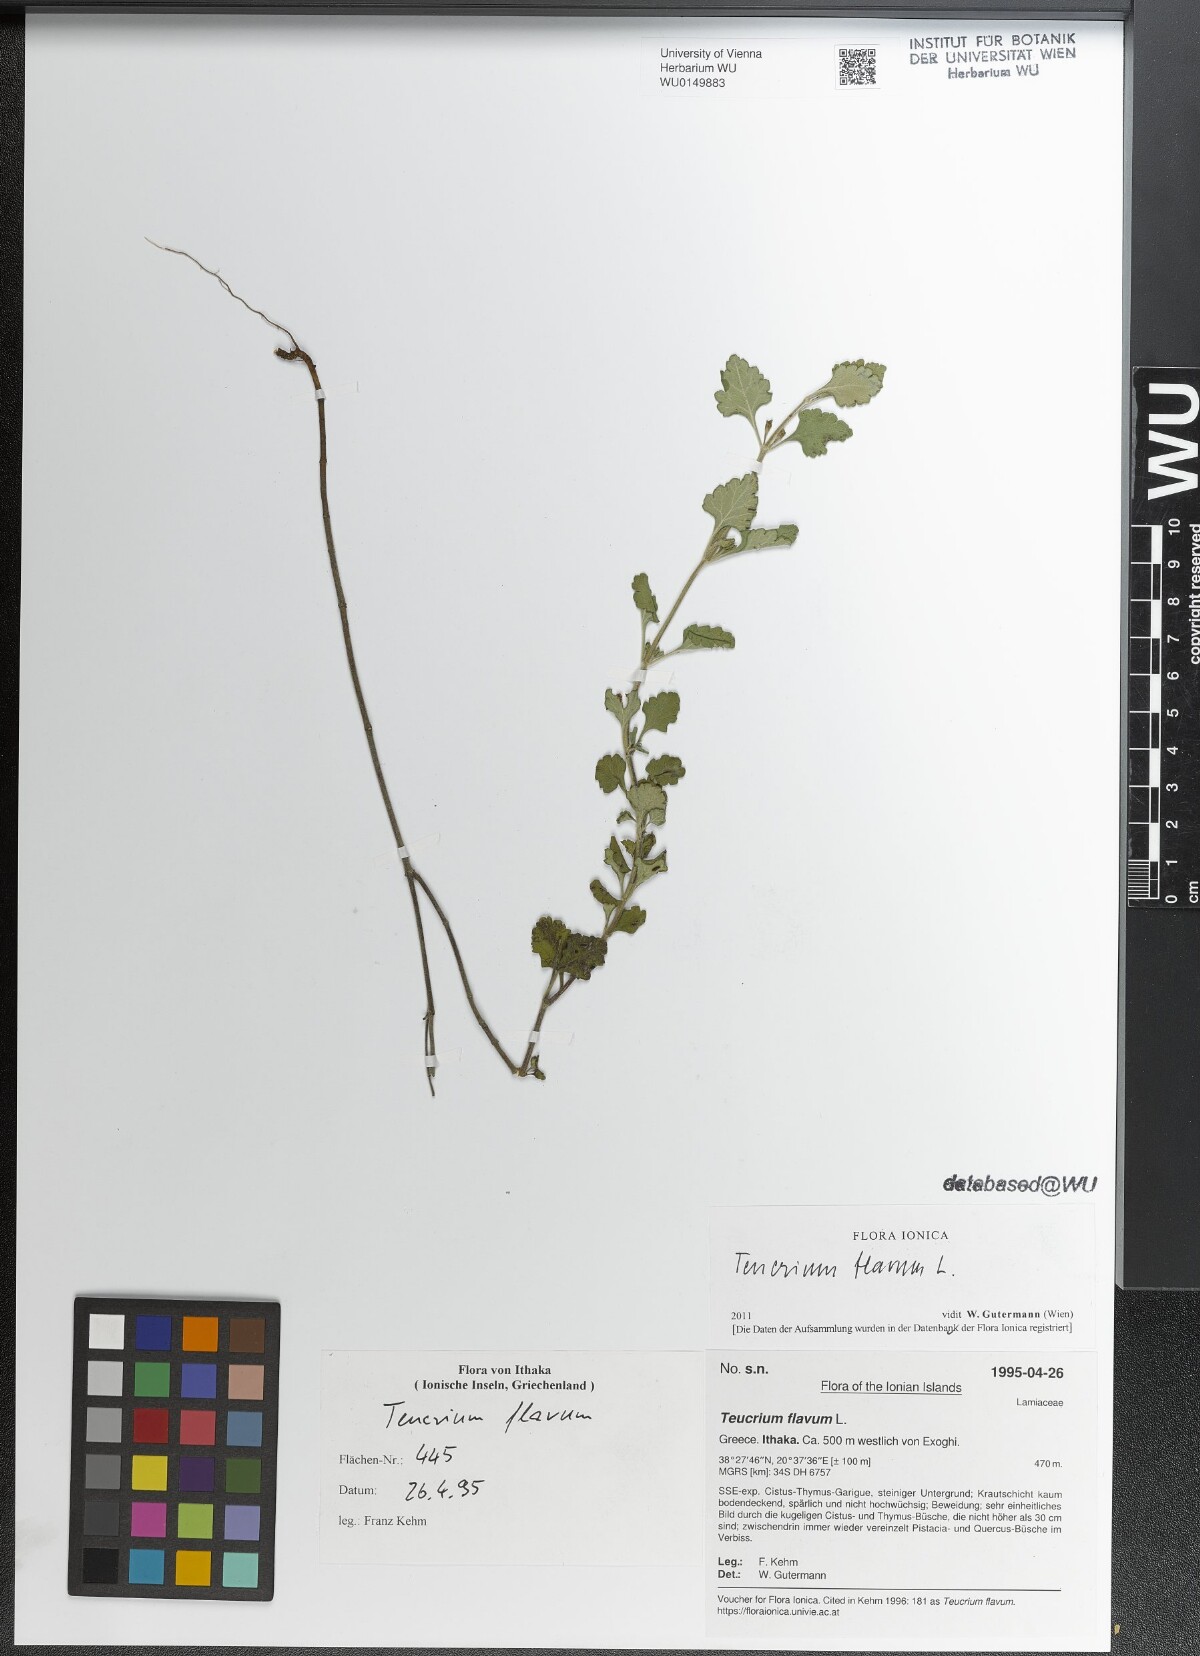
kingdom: Plantae
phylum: Tracheophyta
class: Magnoliopsida
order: Lamiales
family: Lamiaceae
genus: Teucrium
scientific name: Teucrium flavum
